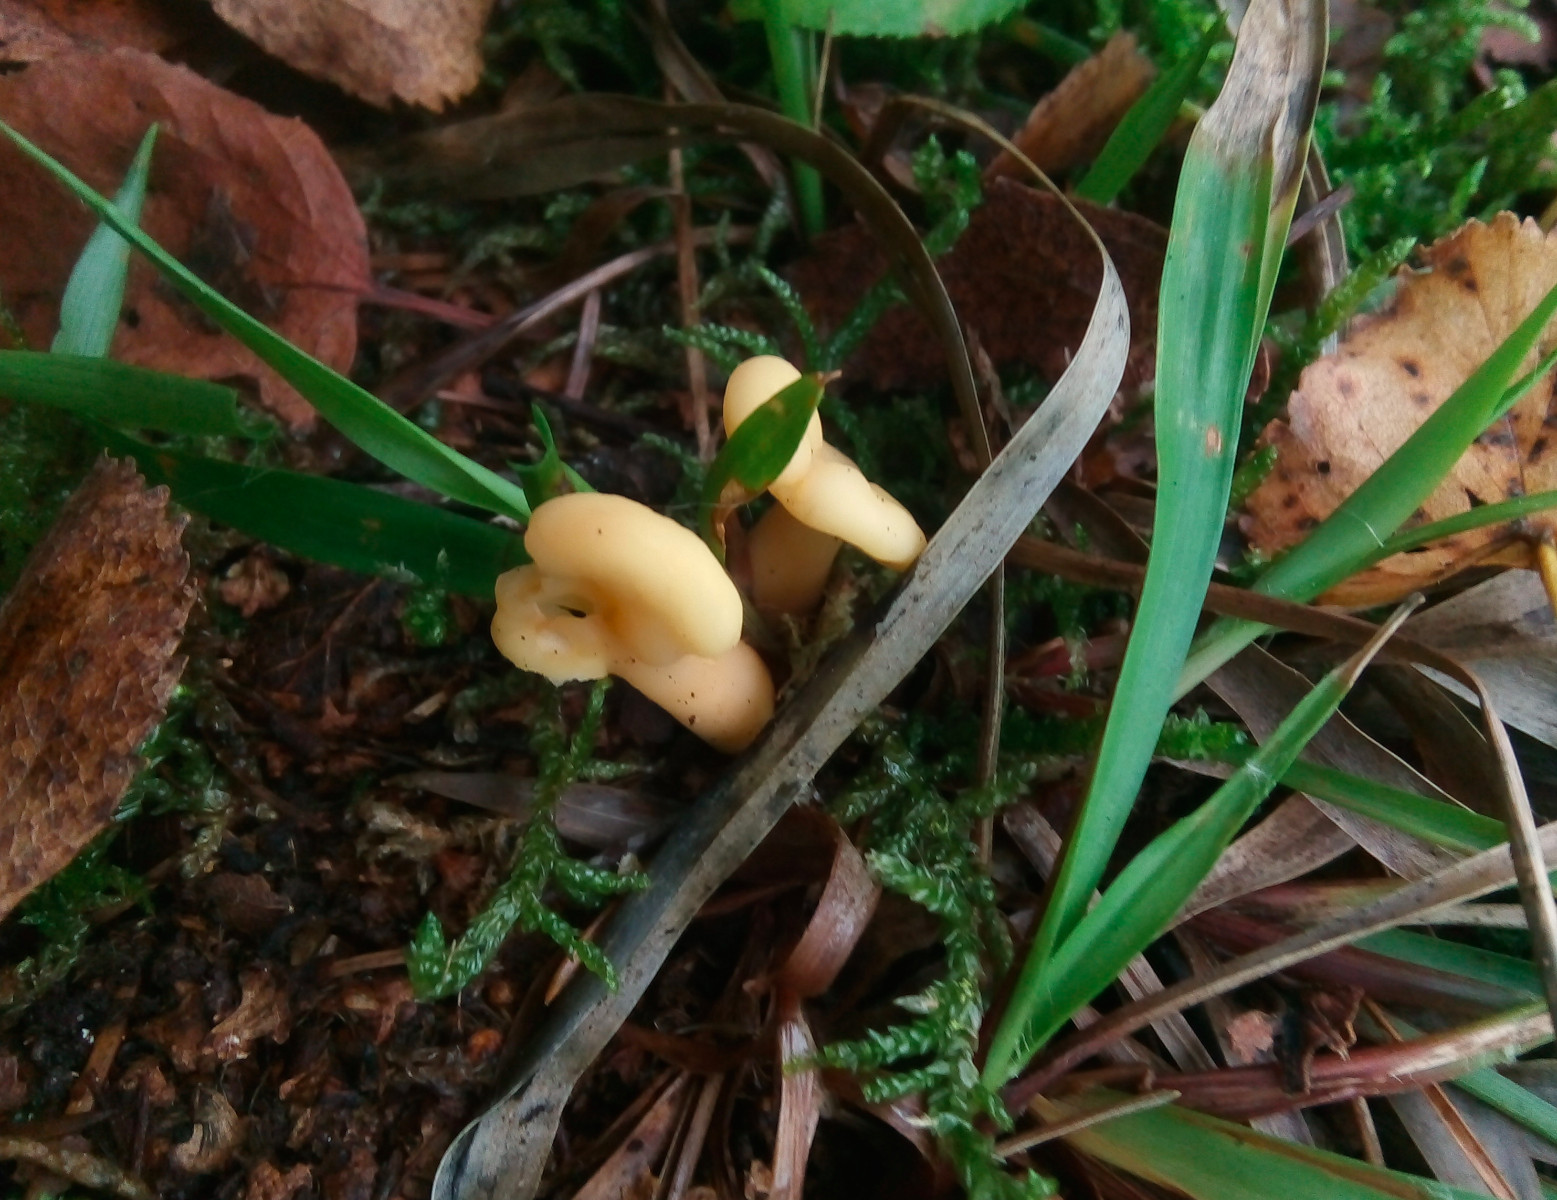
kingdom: Fungi
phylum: Ascomycota
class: Leotiomycetes
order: Rhytismatales
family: Cudoniaceae
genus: Spathularia
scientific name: Spathularia flavida
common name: gul spatelsvamp
